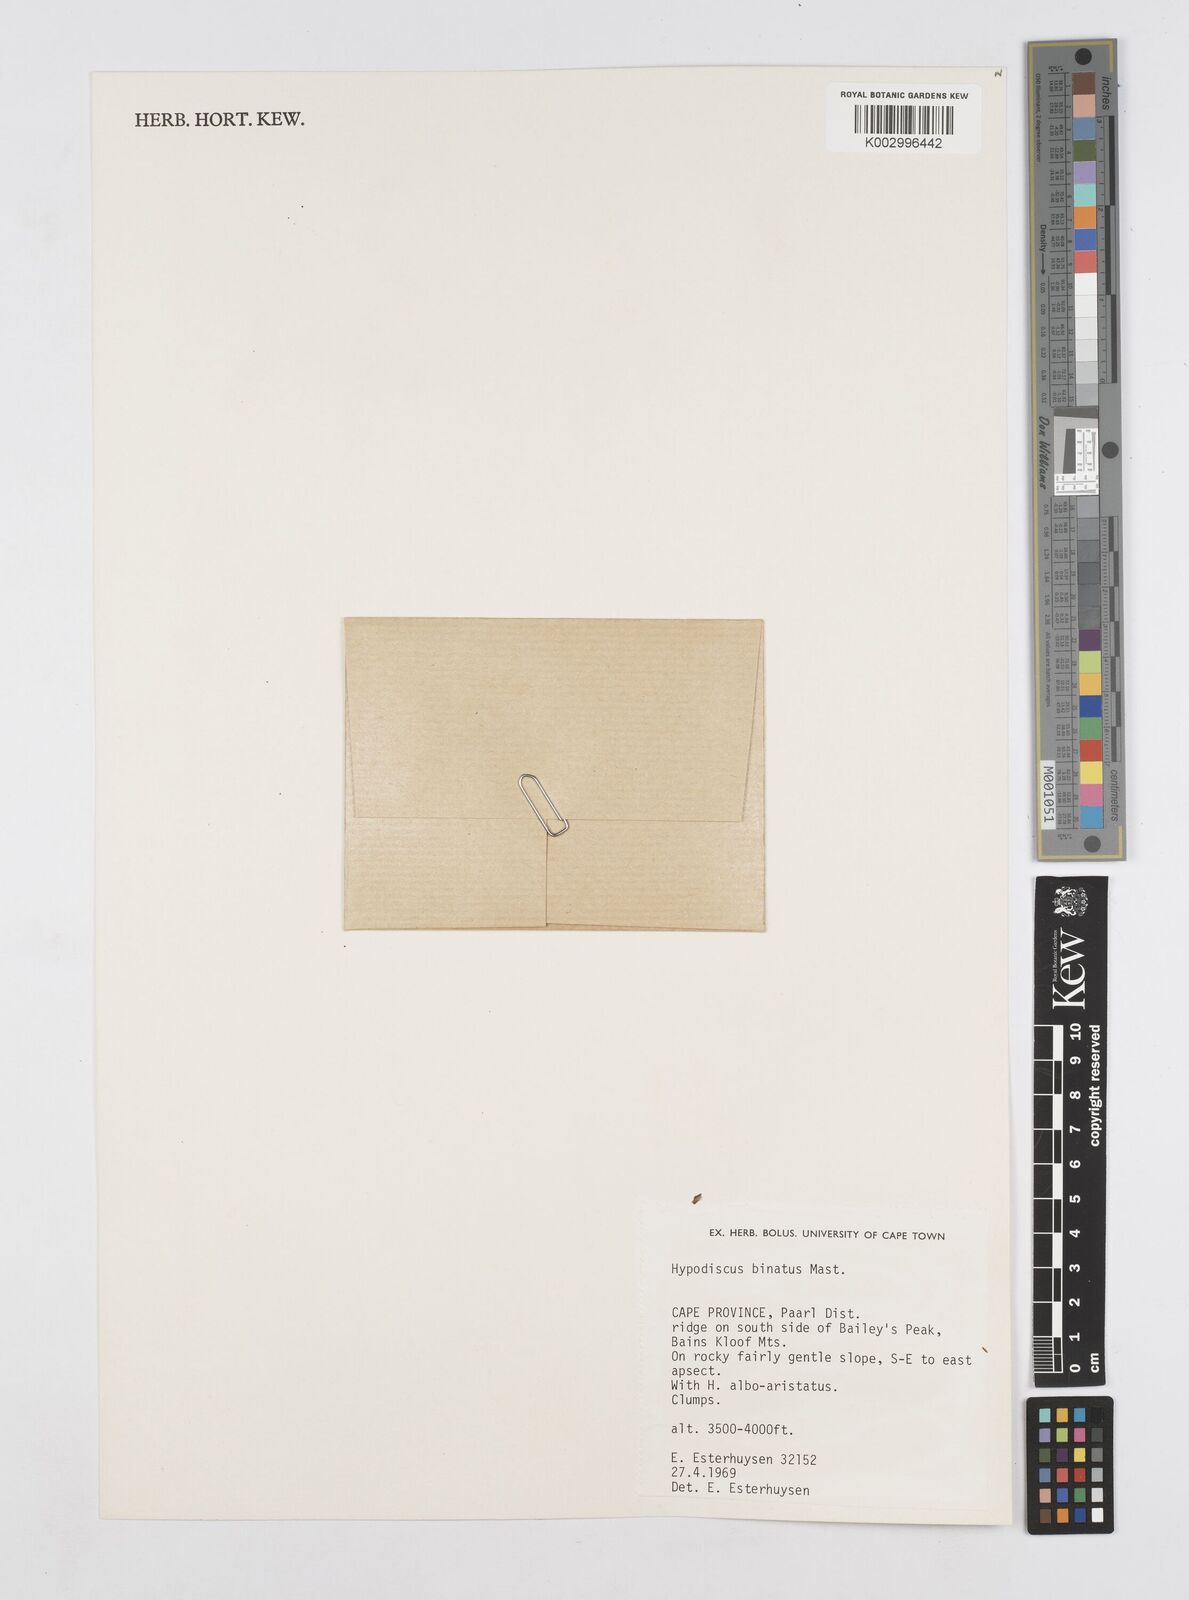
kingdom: Plantae
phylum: Tracheophyta
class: Liliopsida
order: Poales
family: Restionaceae
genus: Hypodiscus
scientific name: Hypodiscus laevigatus
